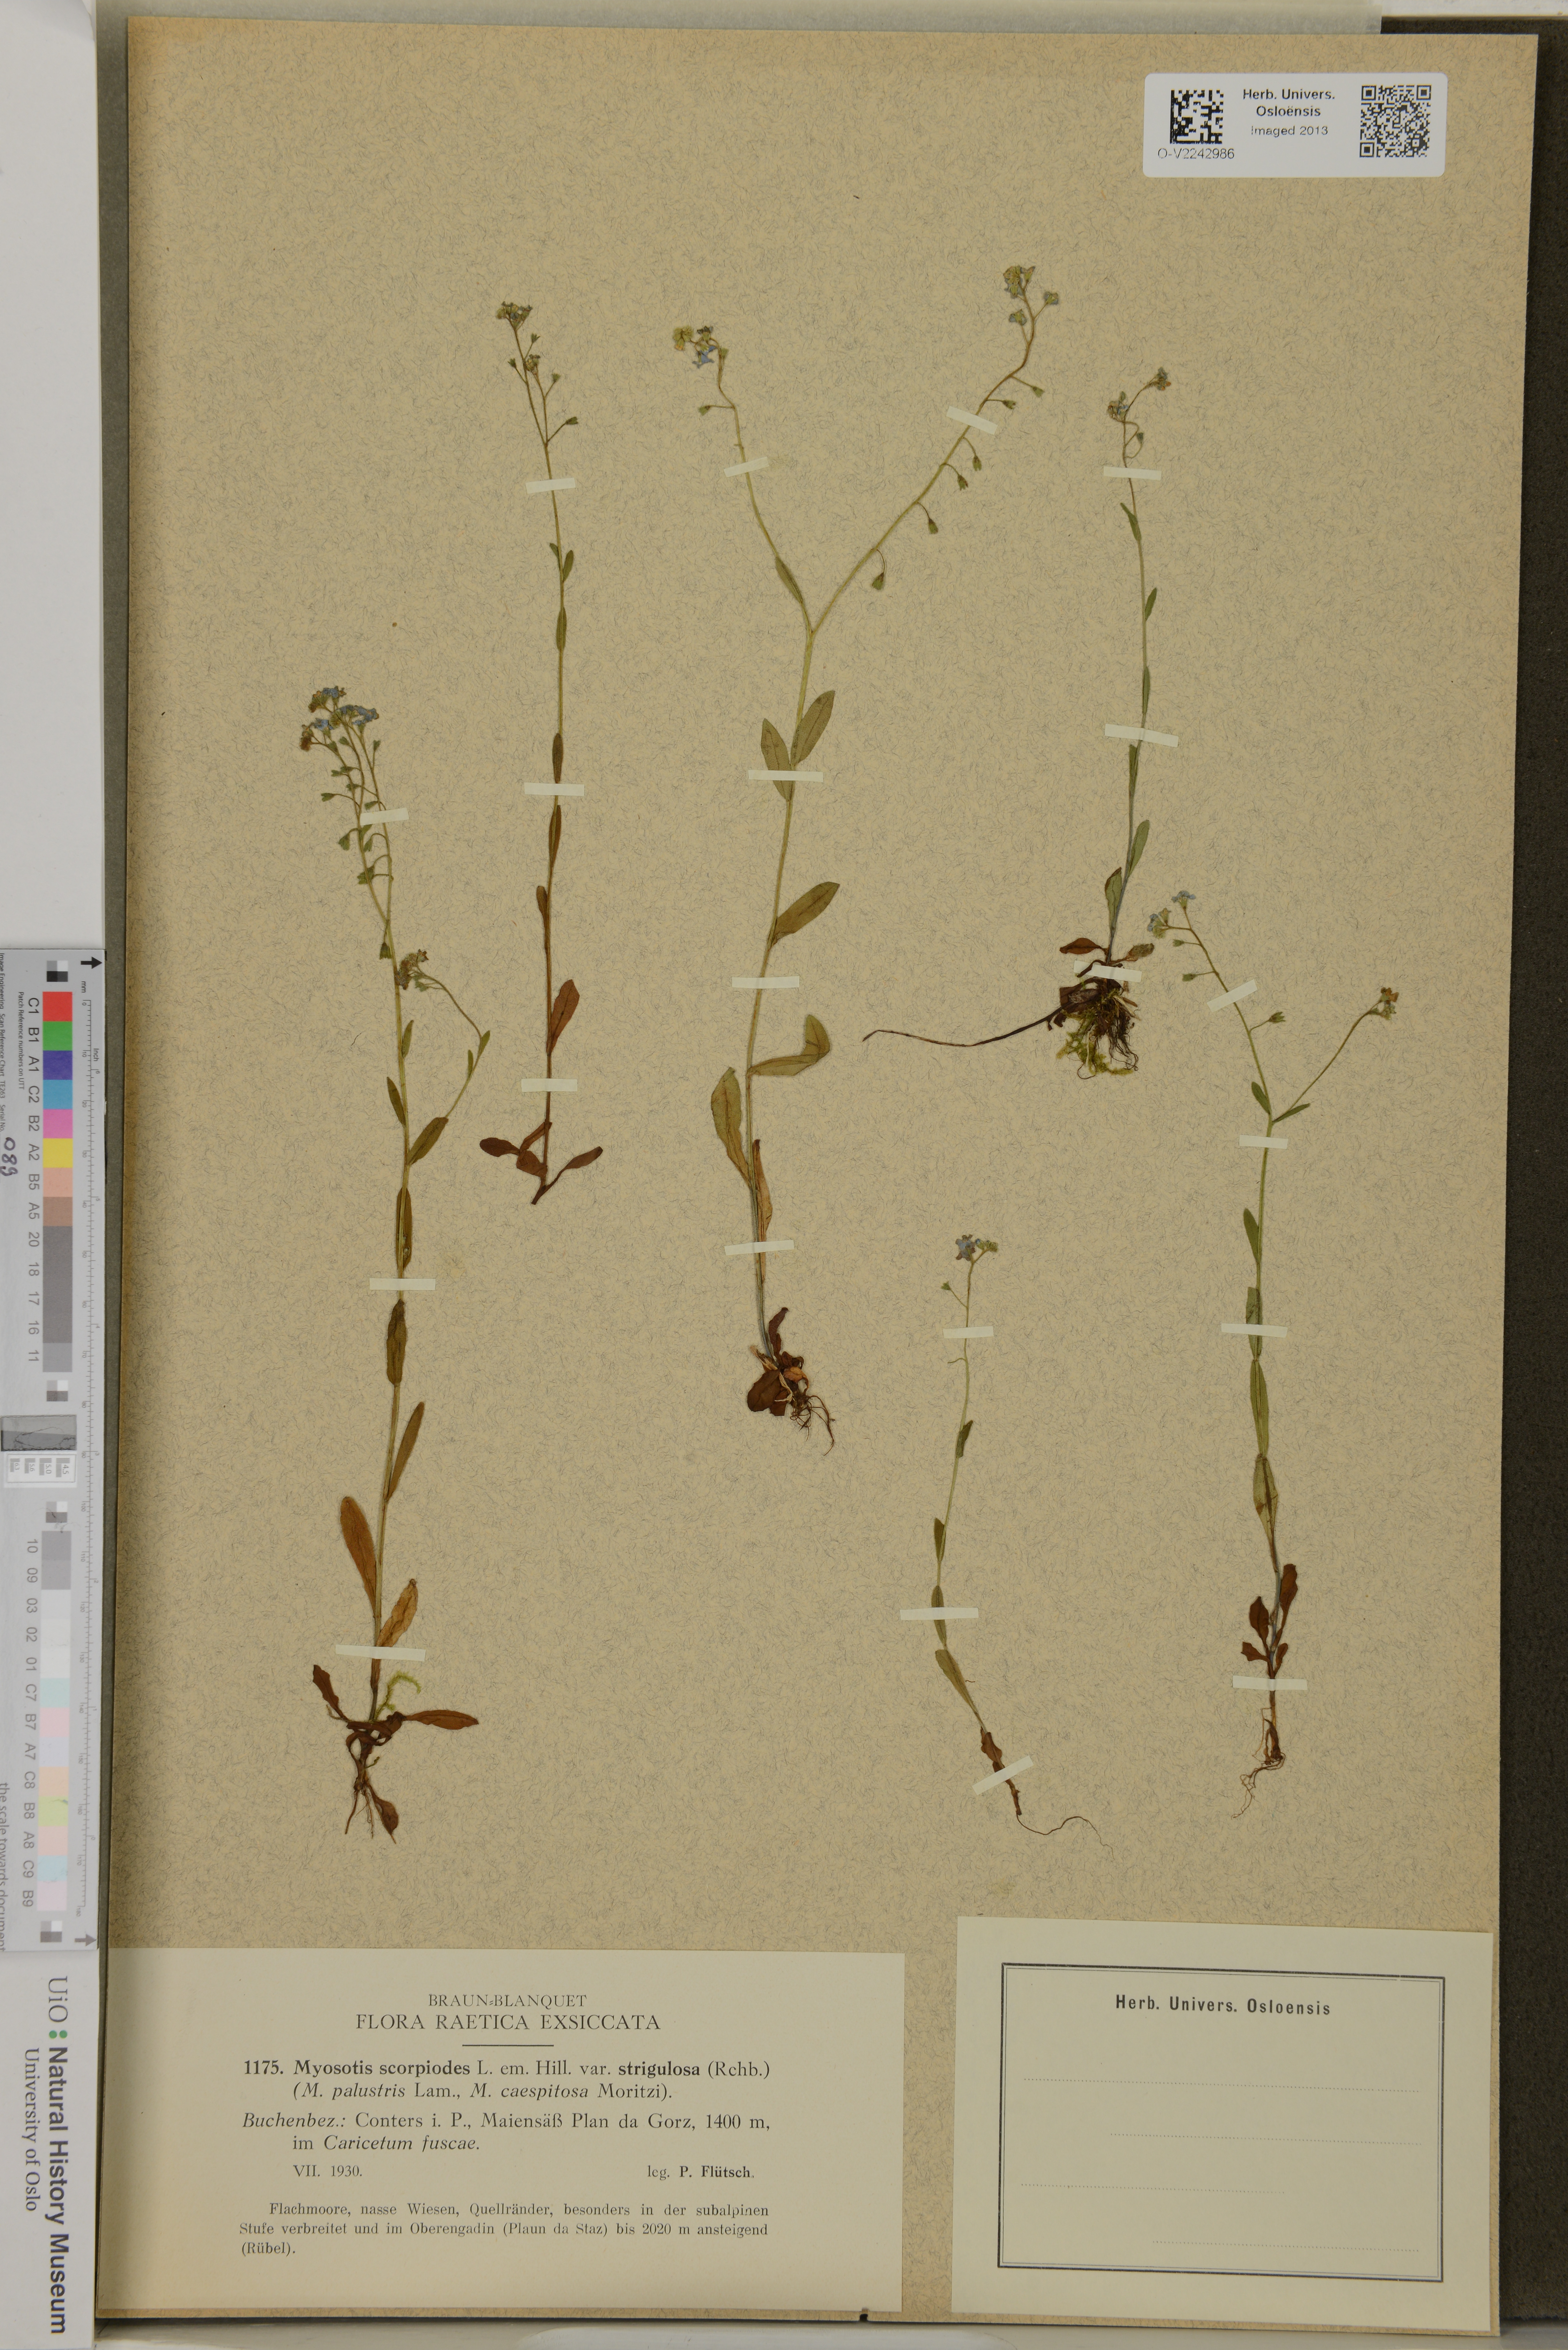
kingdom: Plantae
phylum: Tracheophyta
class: Magnoliopsida
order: Boraginales
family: Boraginaceae
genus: Myosotis
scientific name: Myosotis scorpioides
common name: Water forget-me-not
